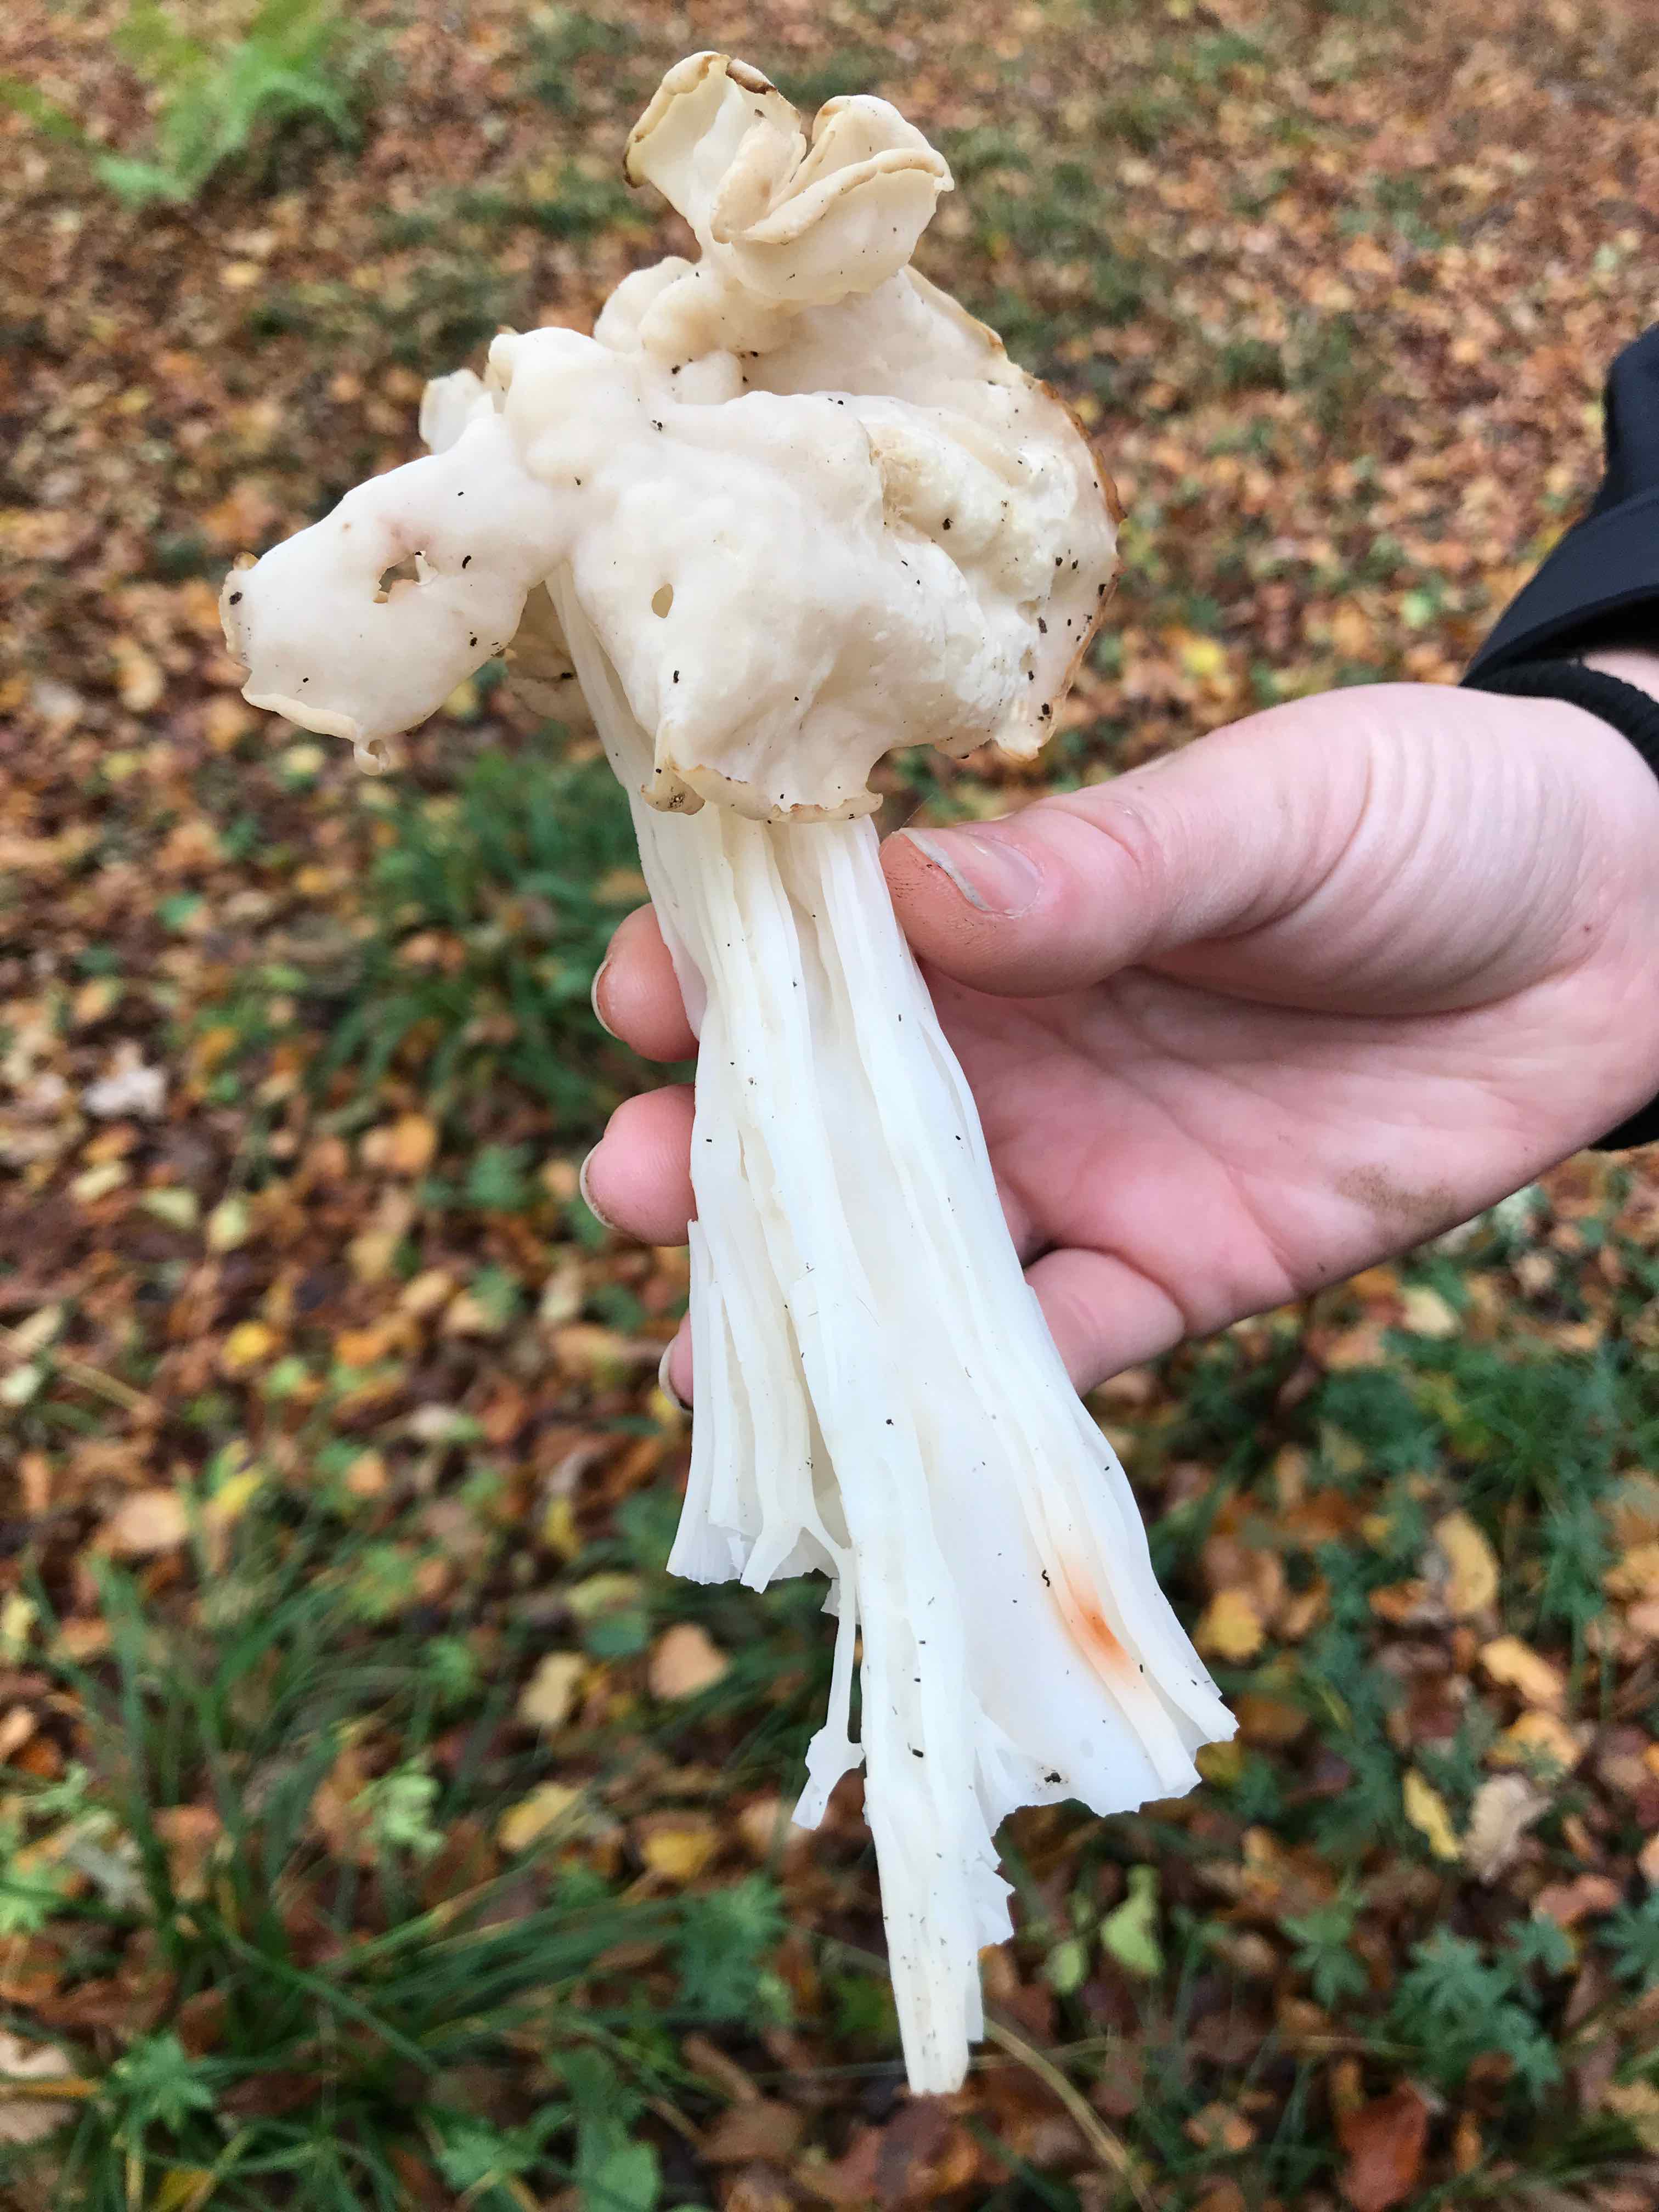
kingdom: Fungi
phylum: Ascomycota
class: Pezizomycetes
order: Pezizales
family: Helvellaceae
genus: Helvella
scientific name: Helvella crispa
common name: kruset foldhat
